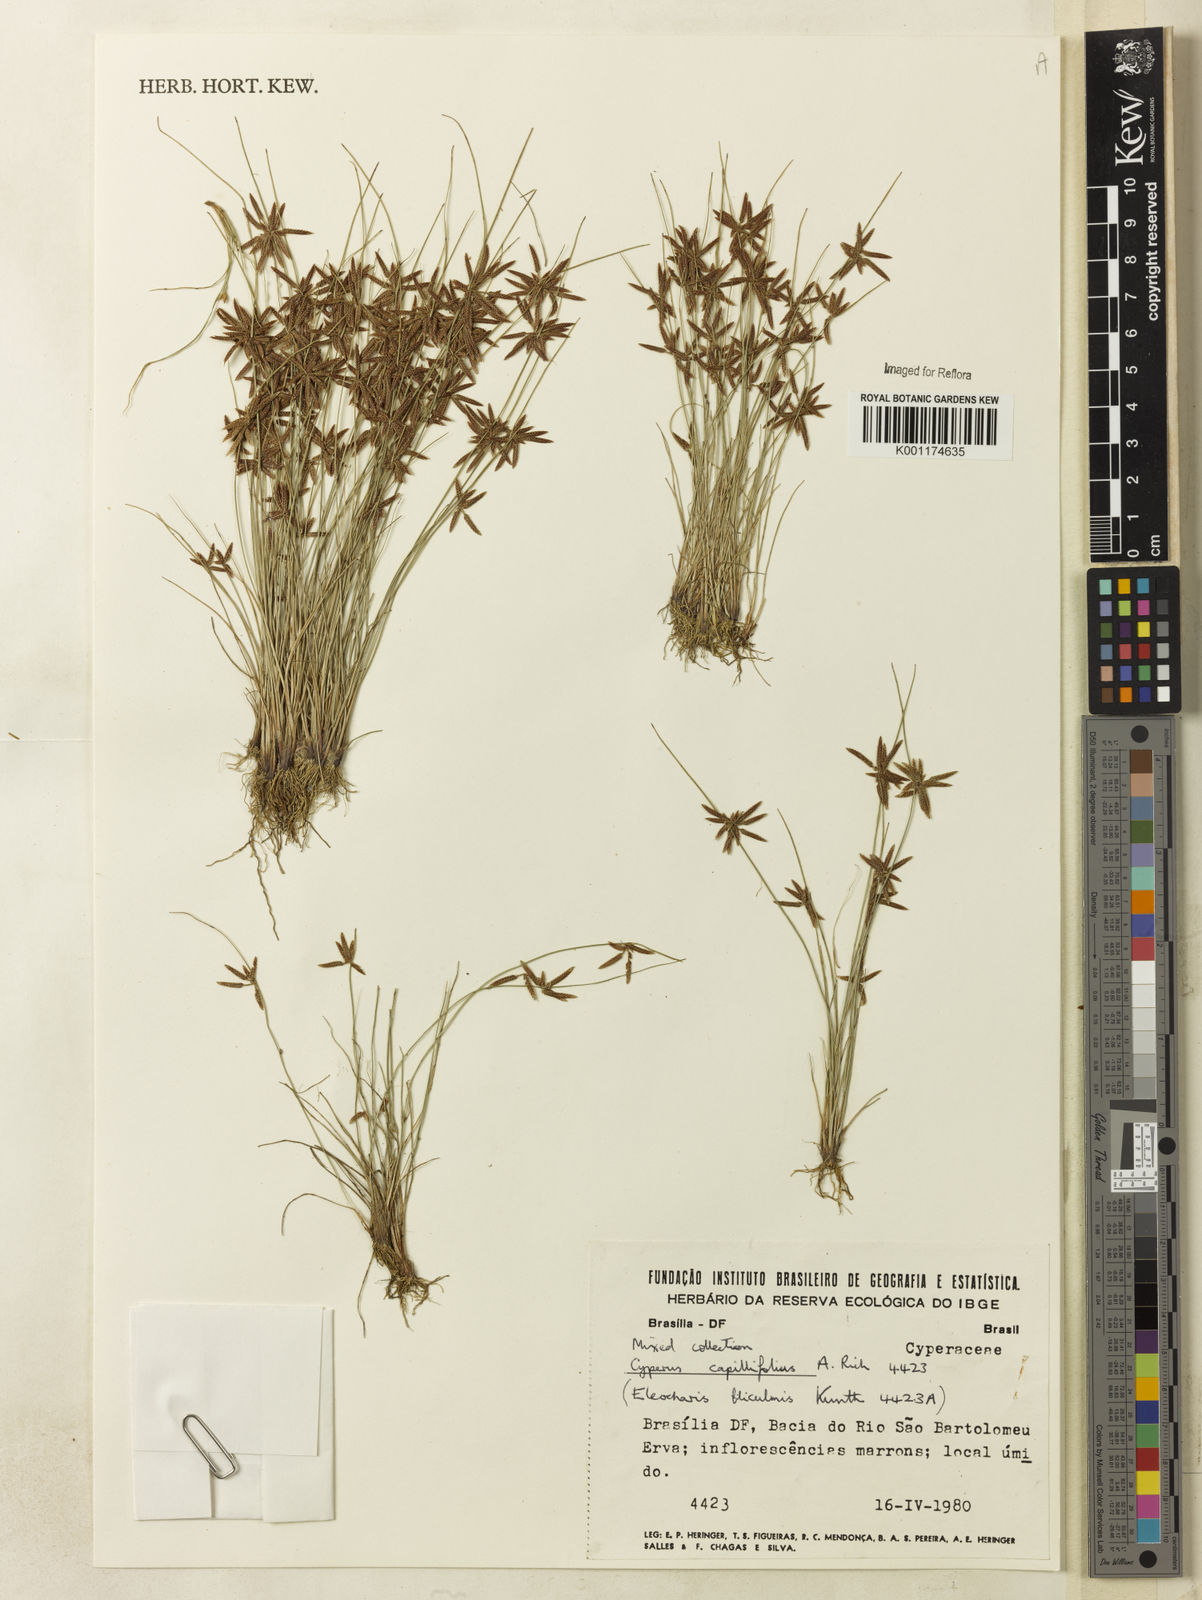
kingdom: Plantae
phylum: Tracheophyta
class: Liliopsida
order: Poales
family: Cyperaceae
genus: Cyperus
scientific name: Cyperus capillifolius
